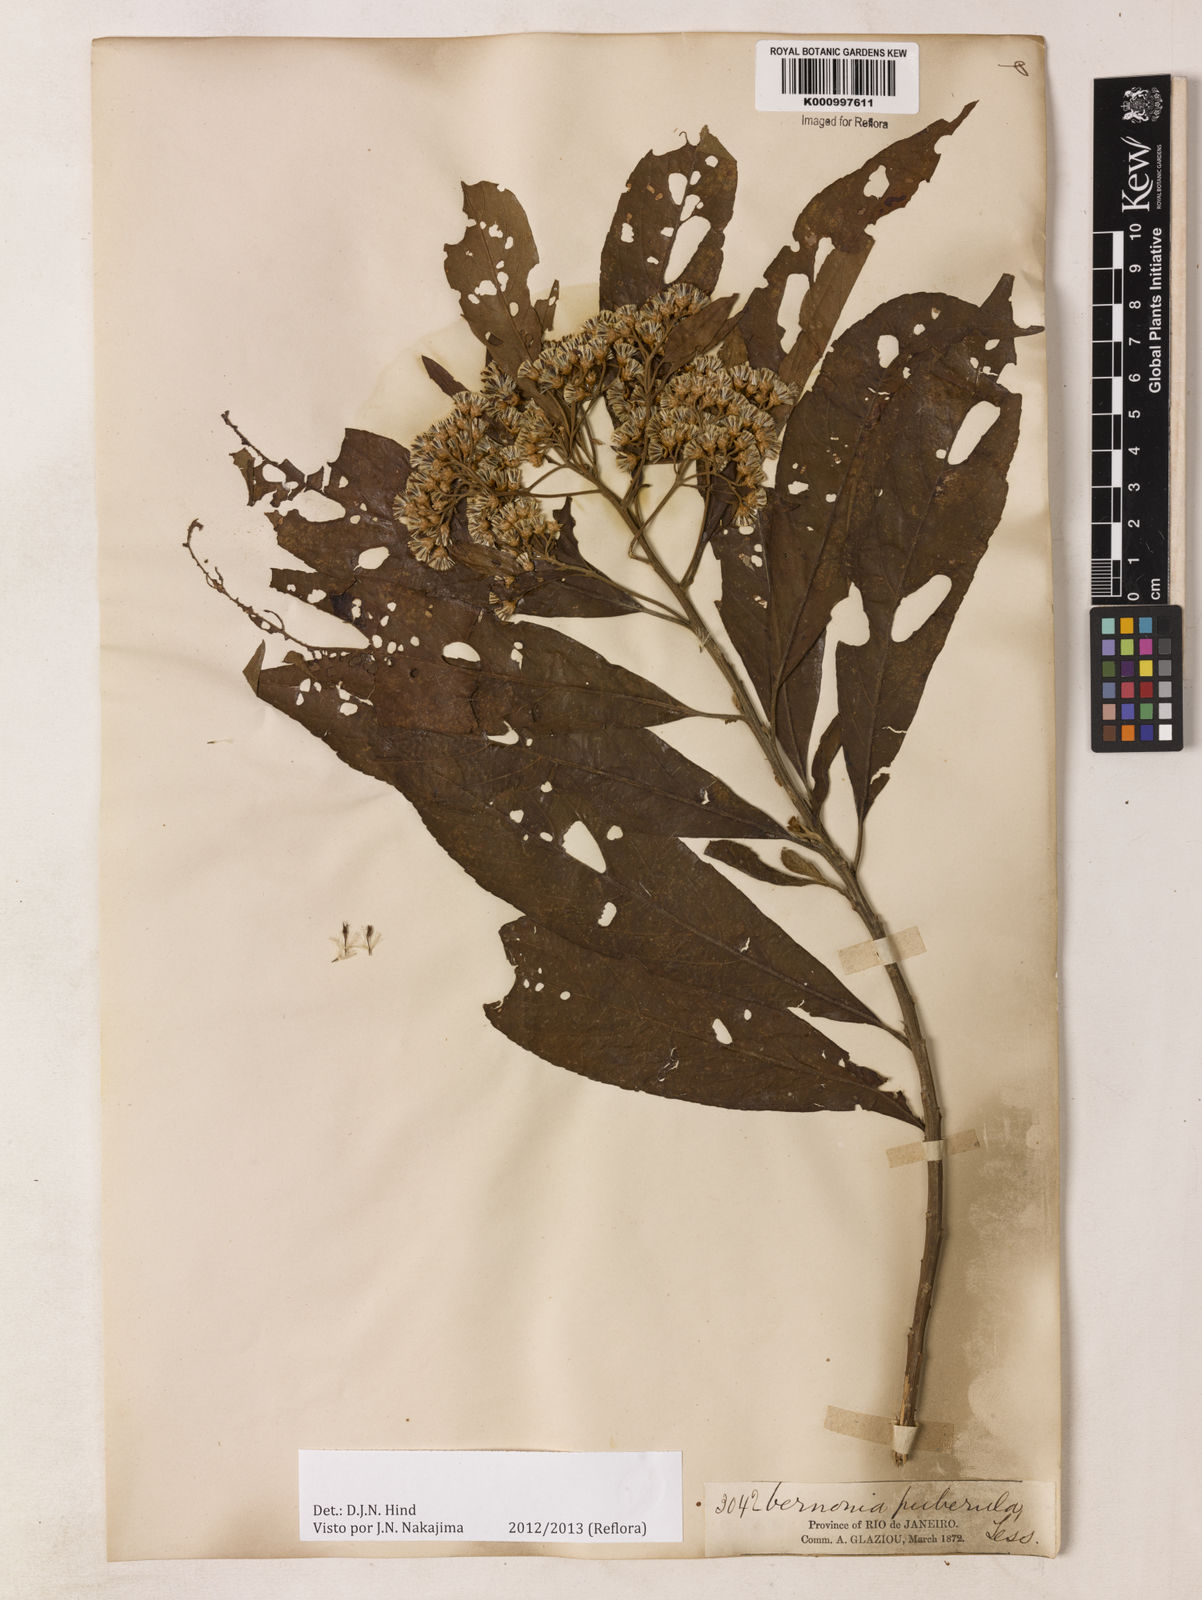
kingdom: Plantae
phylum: Tracheophyta
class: Magnoliopsida
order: Asterales
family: Asteraceae
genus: Vernonanthura
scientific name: Vernonanthura puberula
